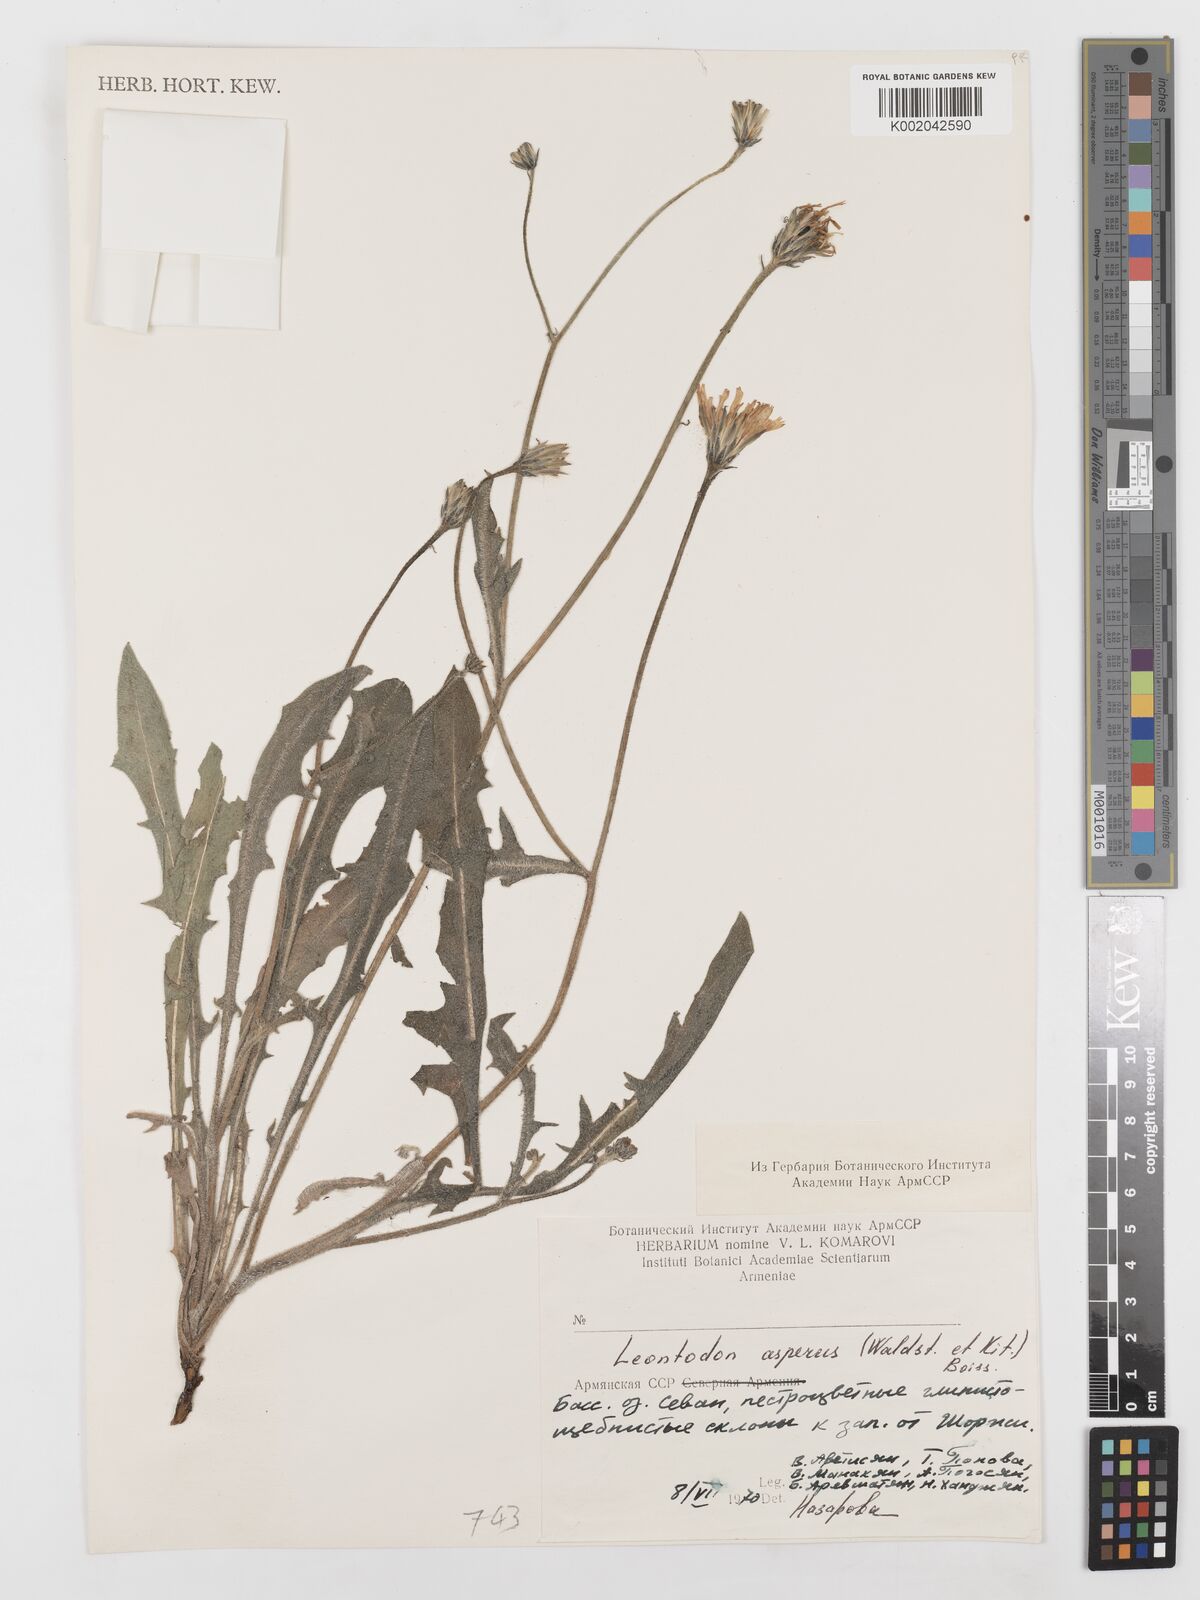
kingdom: Plantae
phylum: Tracheophyta
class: Magnoliopsida
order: Asterales
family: Asteraceae
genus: Leontodon
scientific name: Leontodon biscutellifolius
